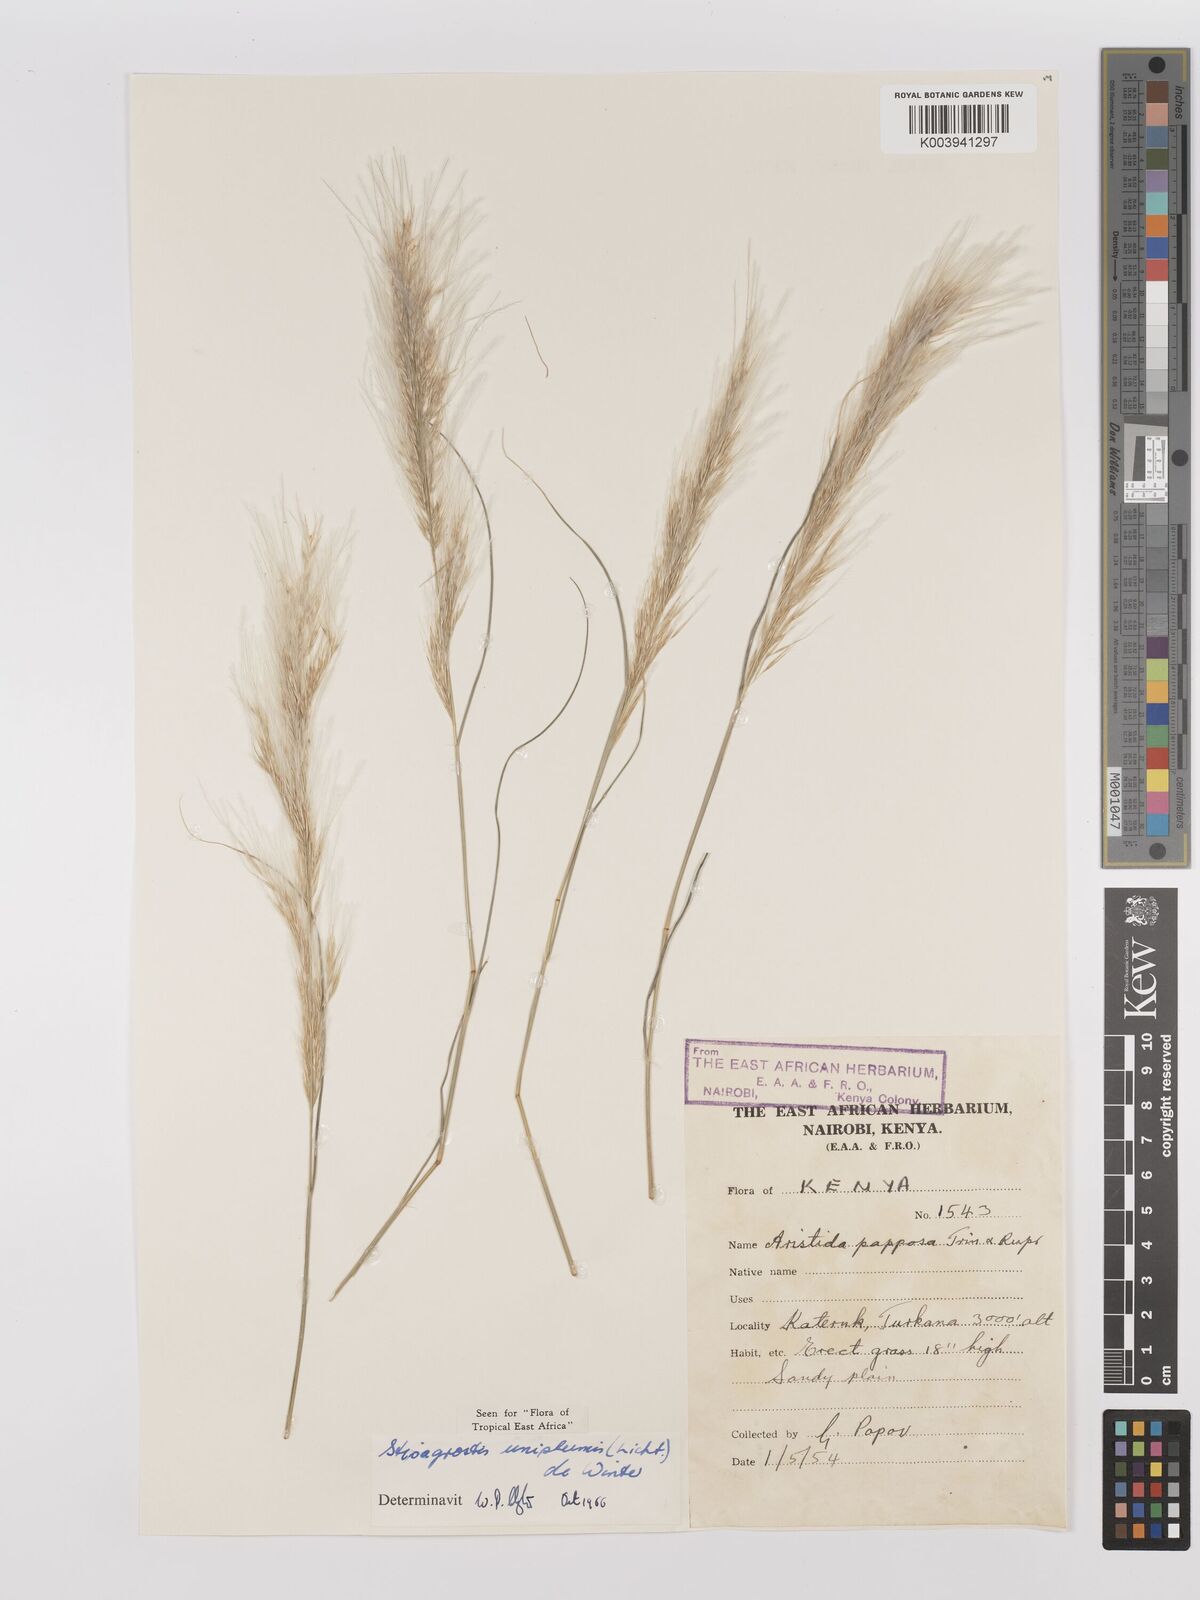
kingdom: Plantae
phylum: Tracheophyta
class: Liliopsida
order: Poales
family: Poaceae
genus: Stipagrostis
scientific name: Stipagrostis uniplumis
